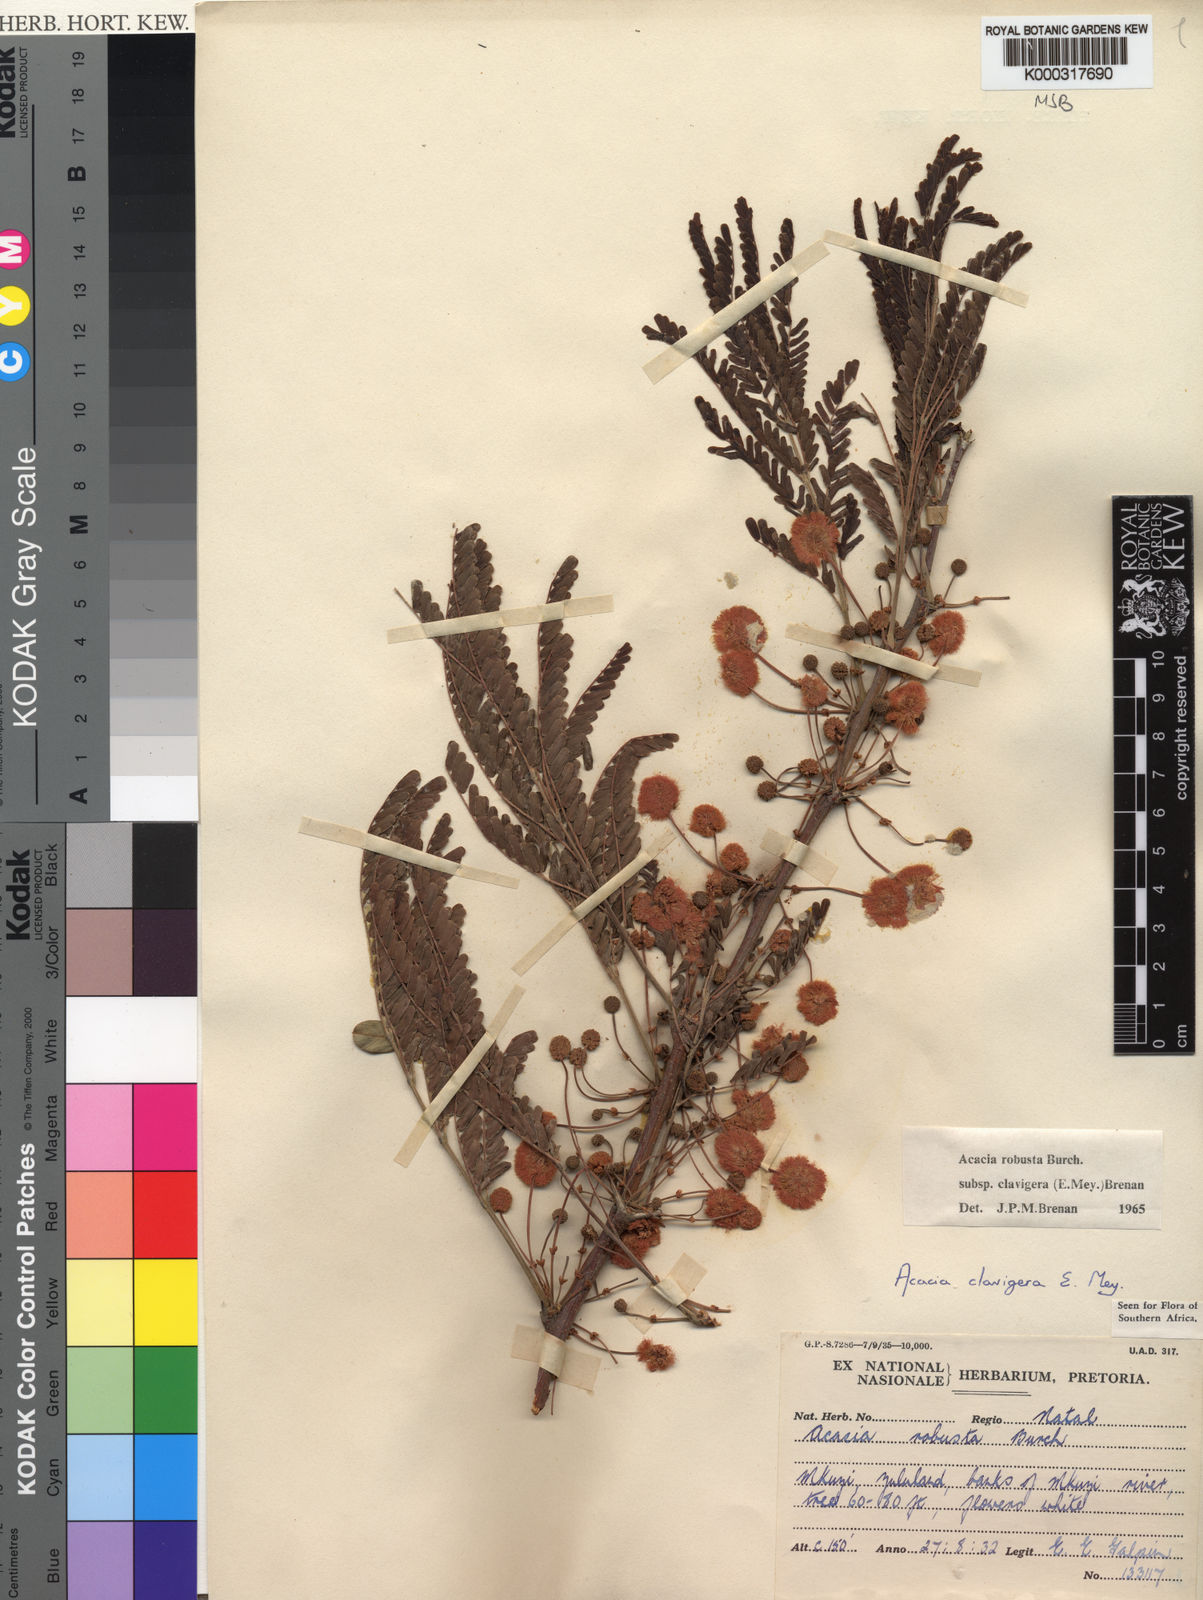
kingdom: Plantae
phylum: Tracheophyta
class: Magnoliopsida
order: Fabales
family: Fabaceae
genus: Vachellia
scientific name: Vachellia robusta
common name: Ankle thorn
